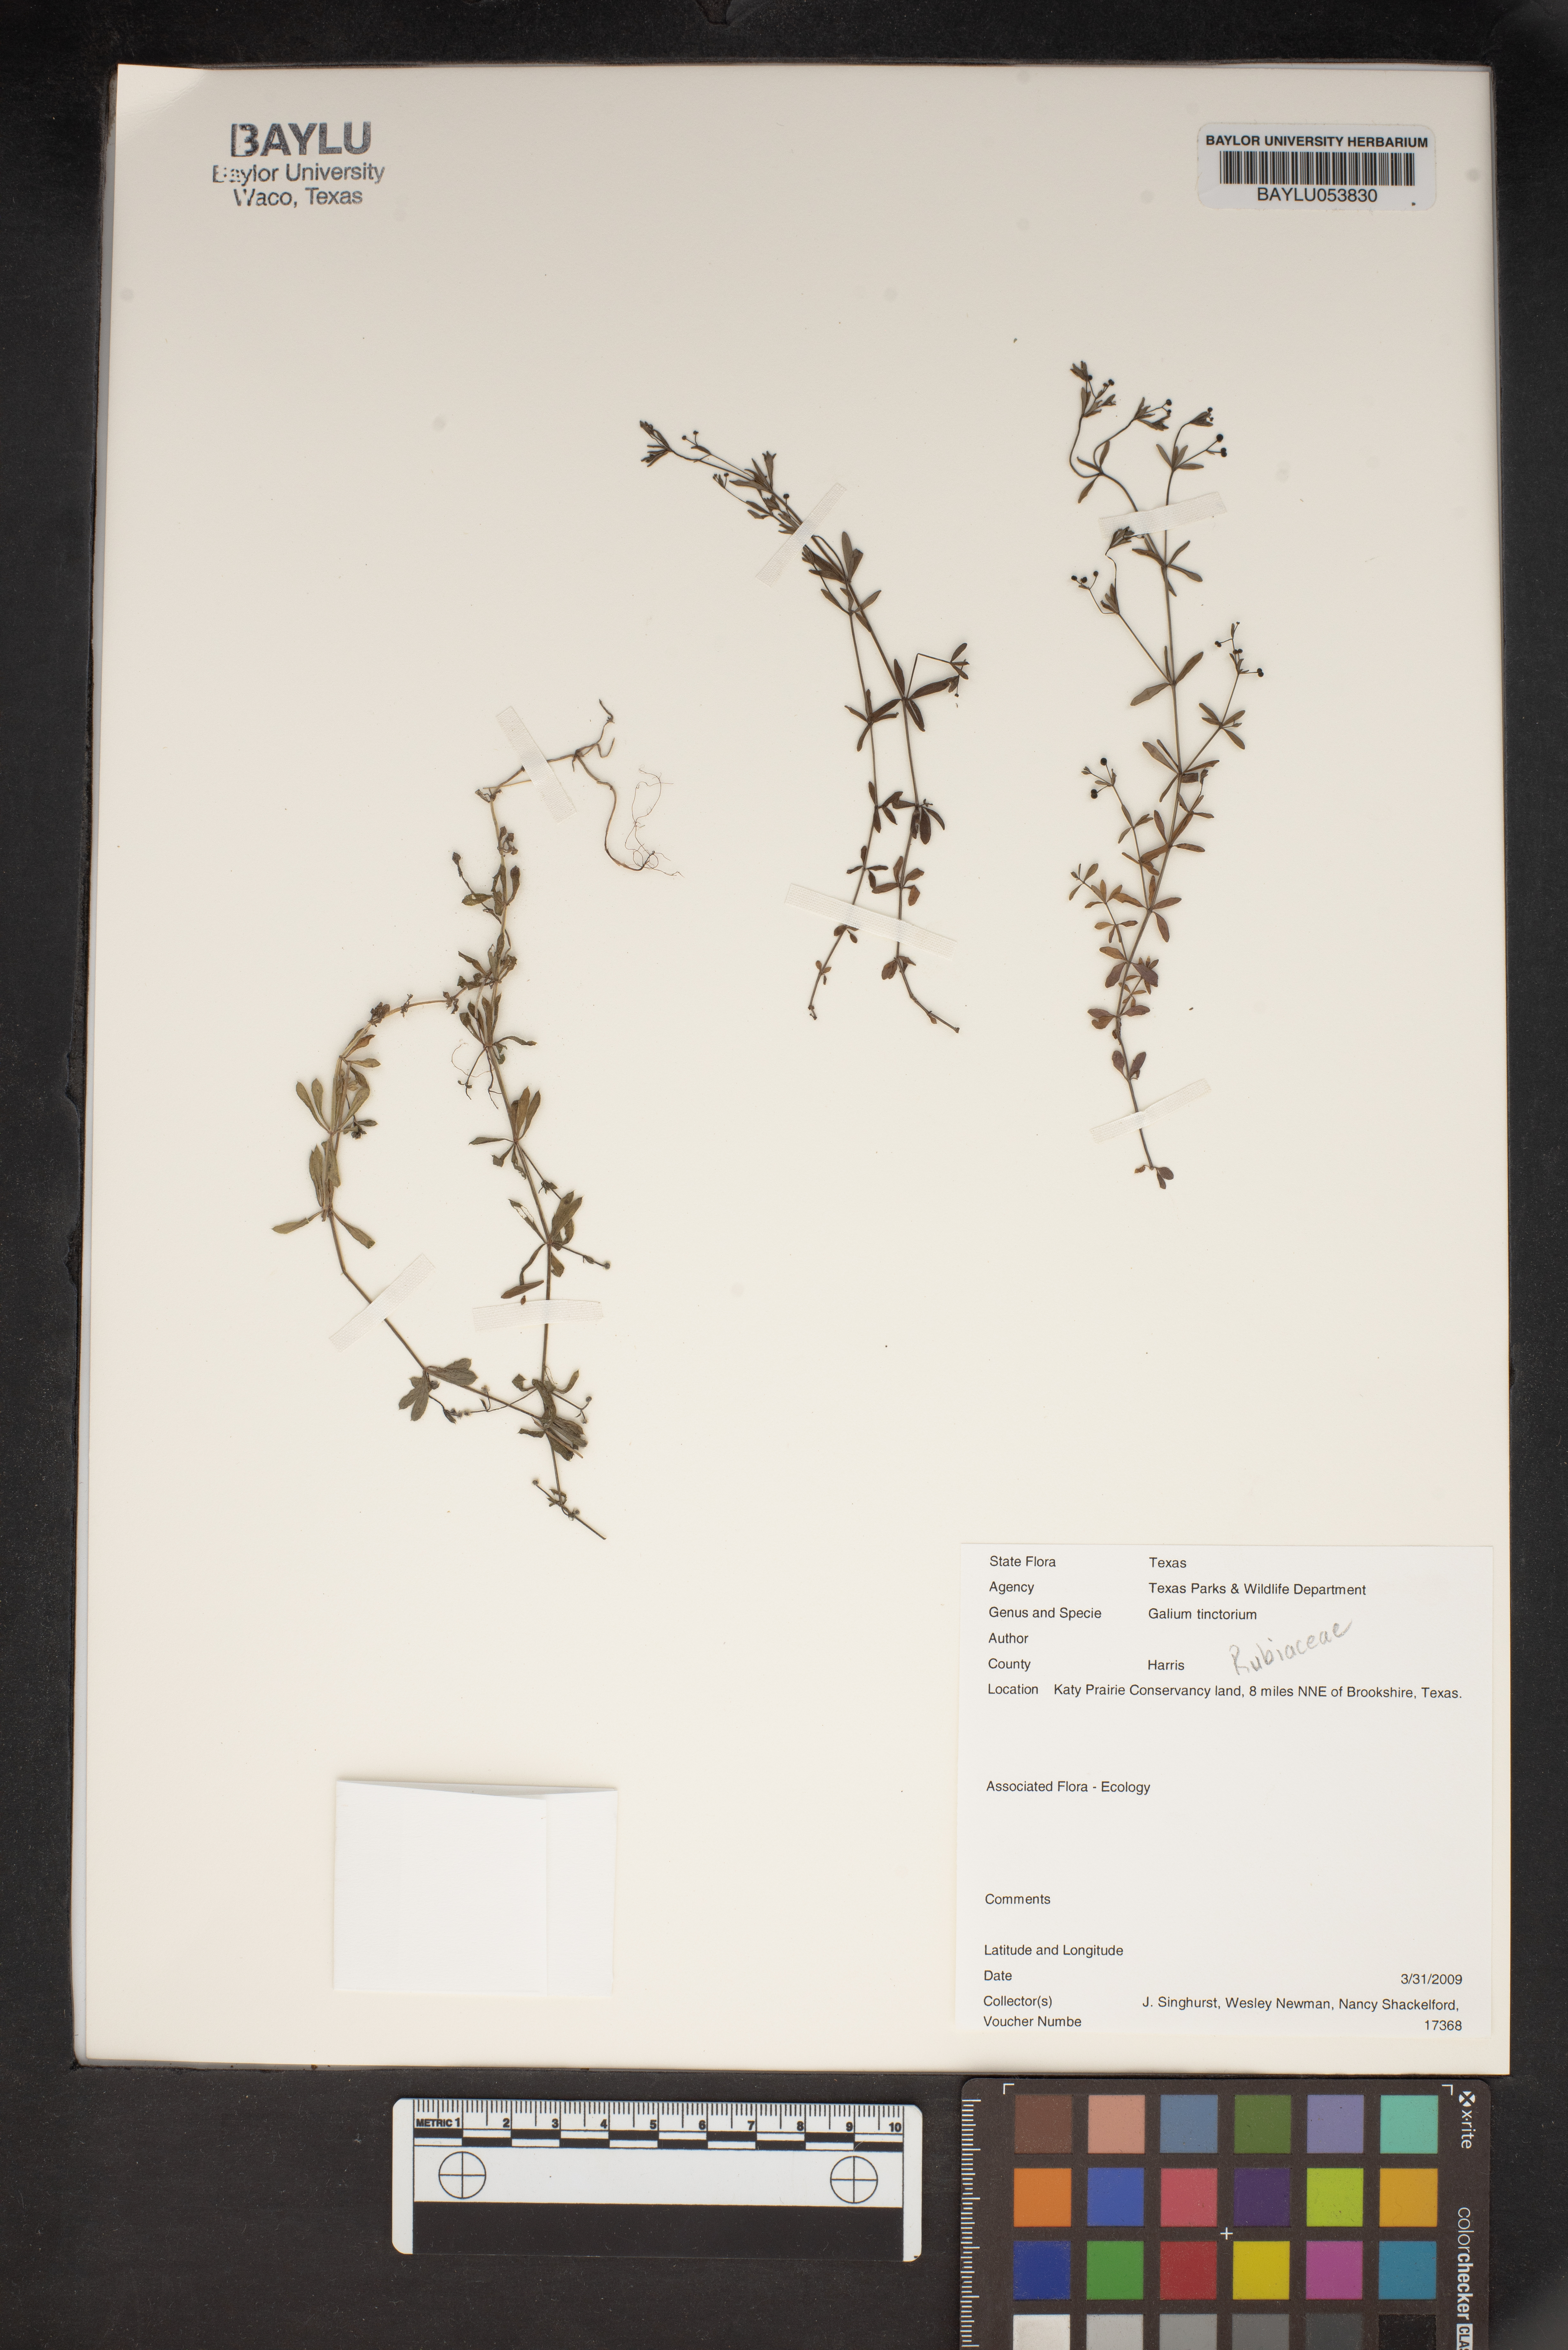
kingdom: Plantae
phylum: Tracheophyta
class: Magnoliopsida
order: Gentianales
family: Rubiaceae
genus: Asperula
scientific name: Asperula tinctoria
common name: Dyer's woodruff
